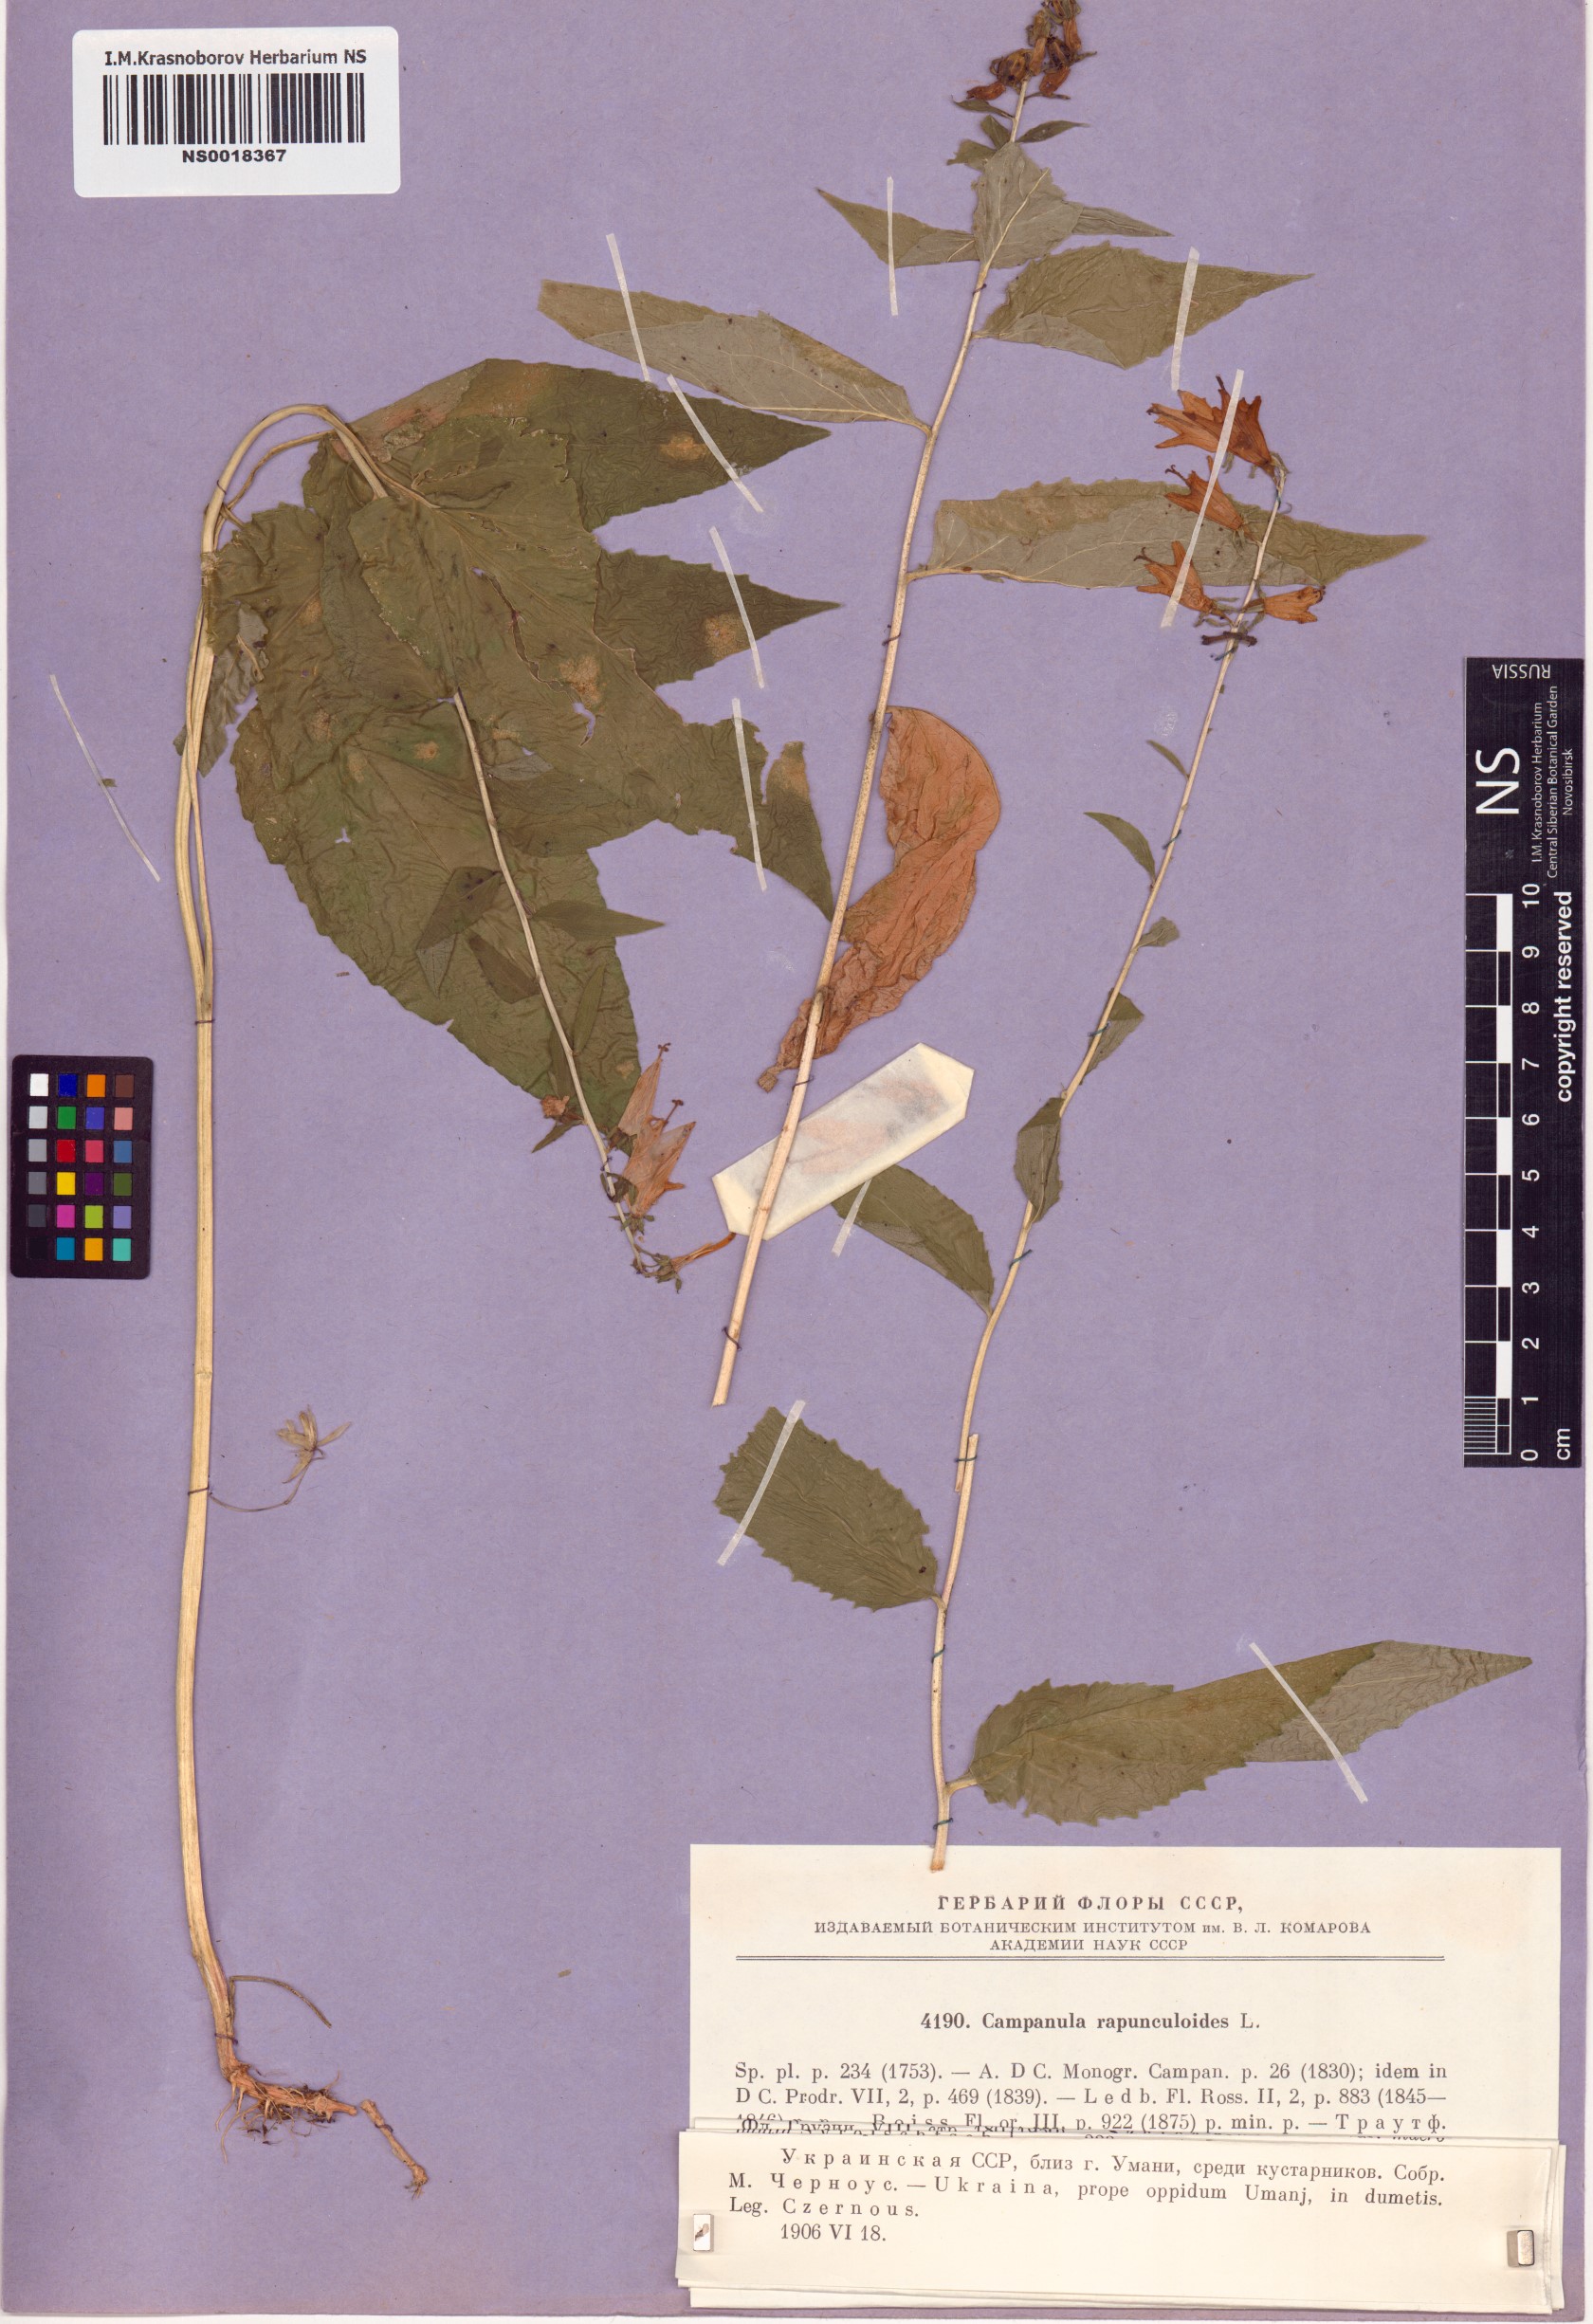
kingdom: Plantae
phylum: Tracheophyta
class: Magnoliopsida
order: Asterales
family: Campanulaceae
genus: Campanula
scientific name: Campanula rapunculoides
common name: Creeping bellflower
